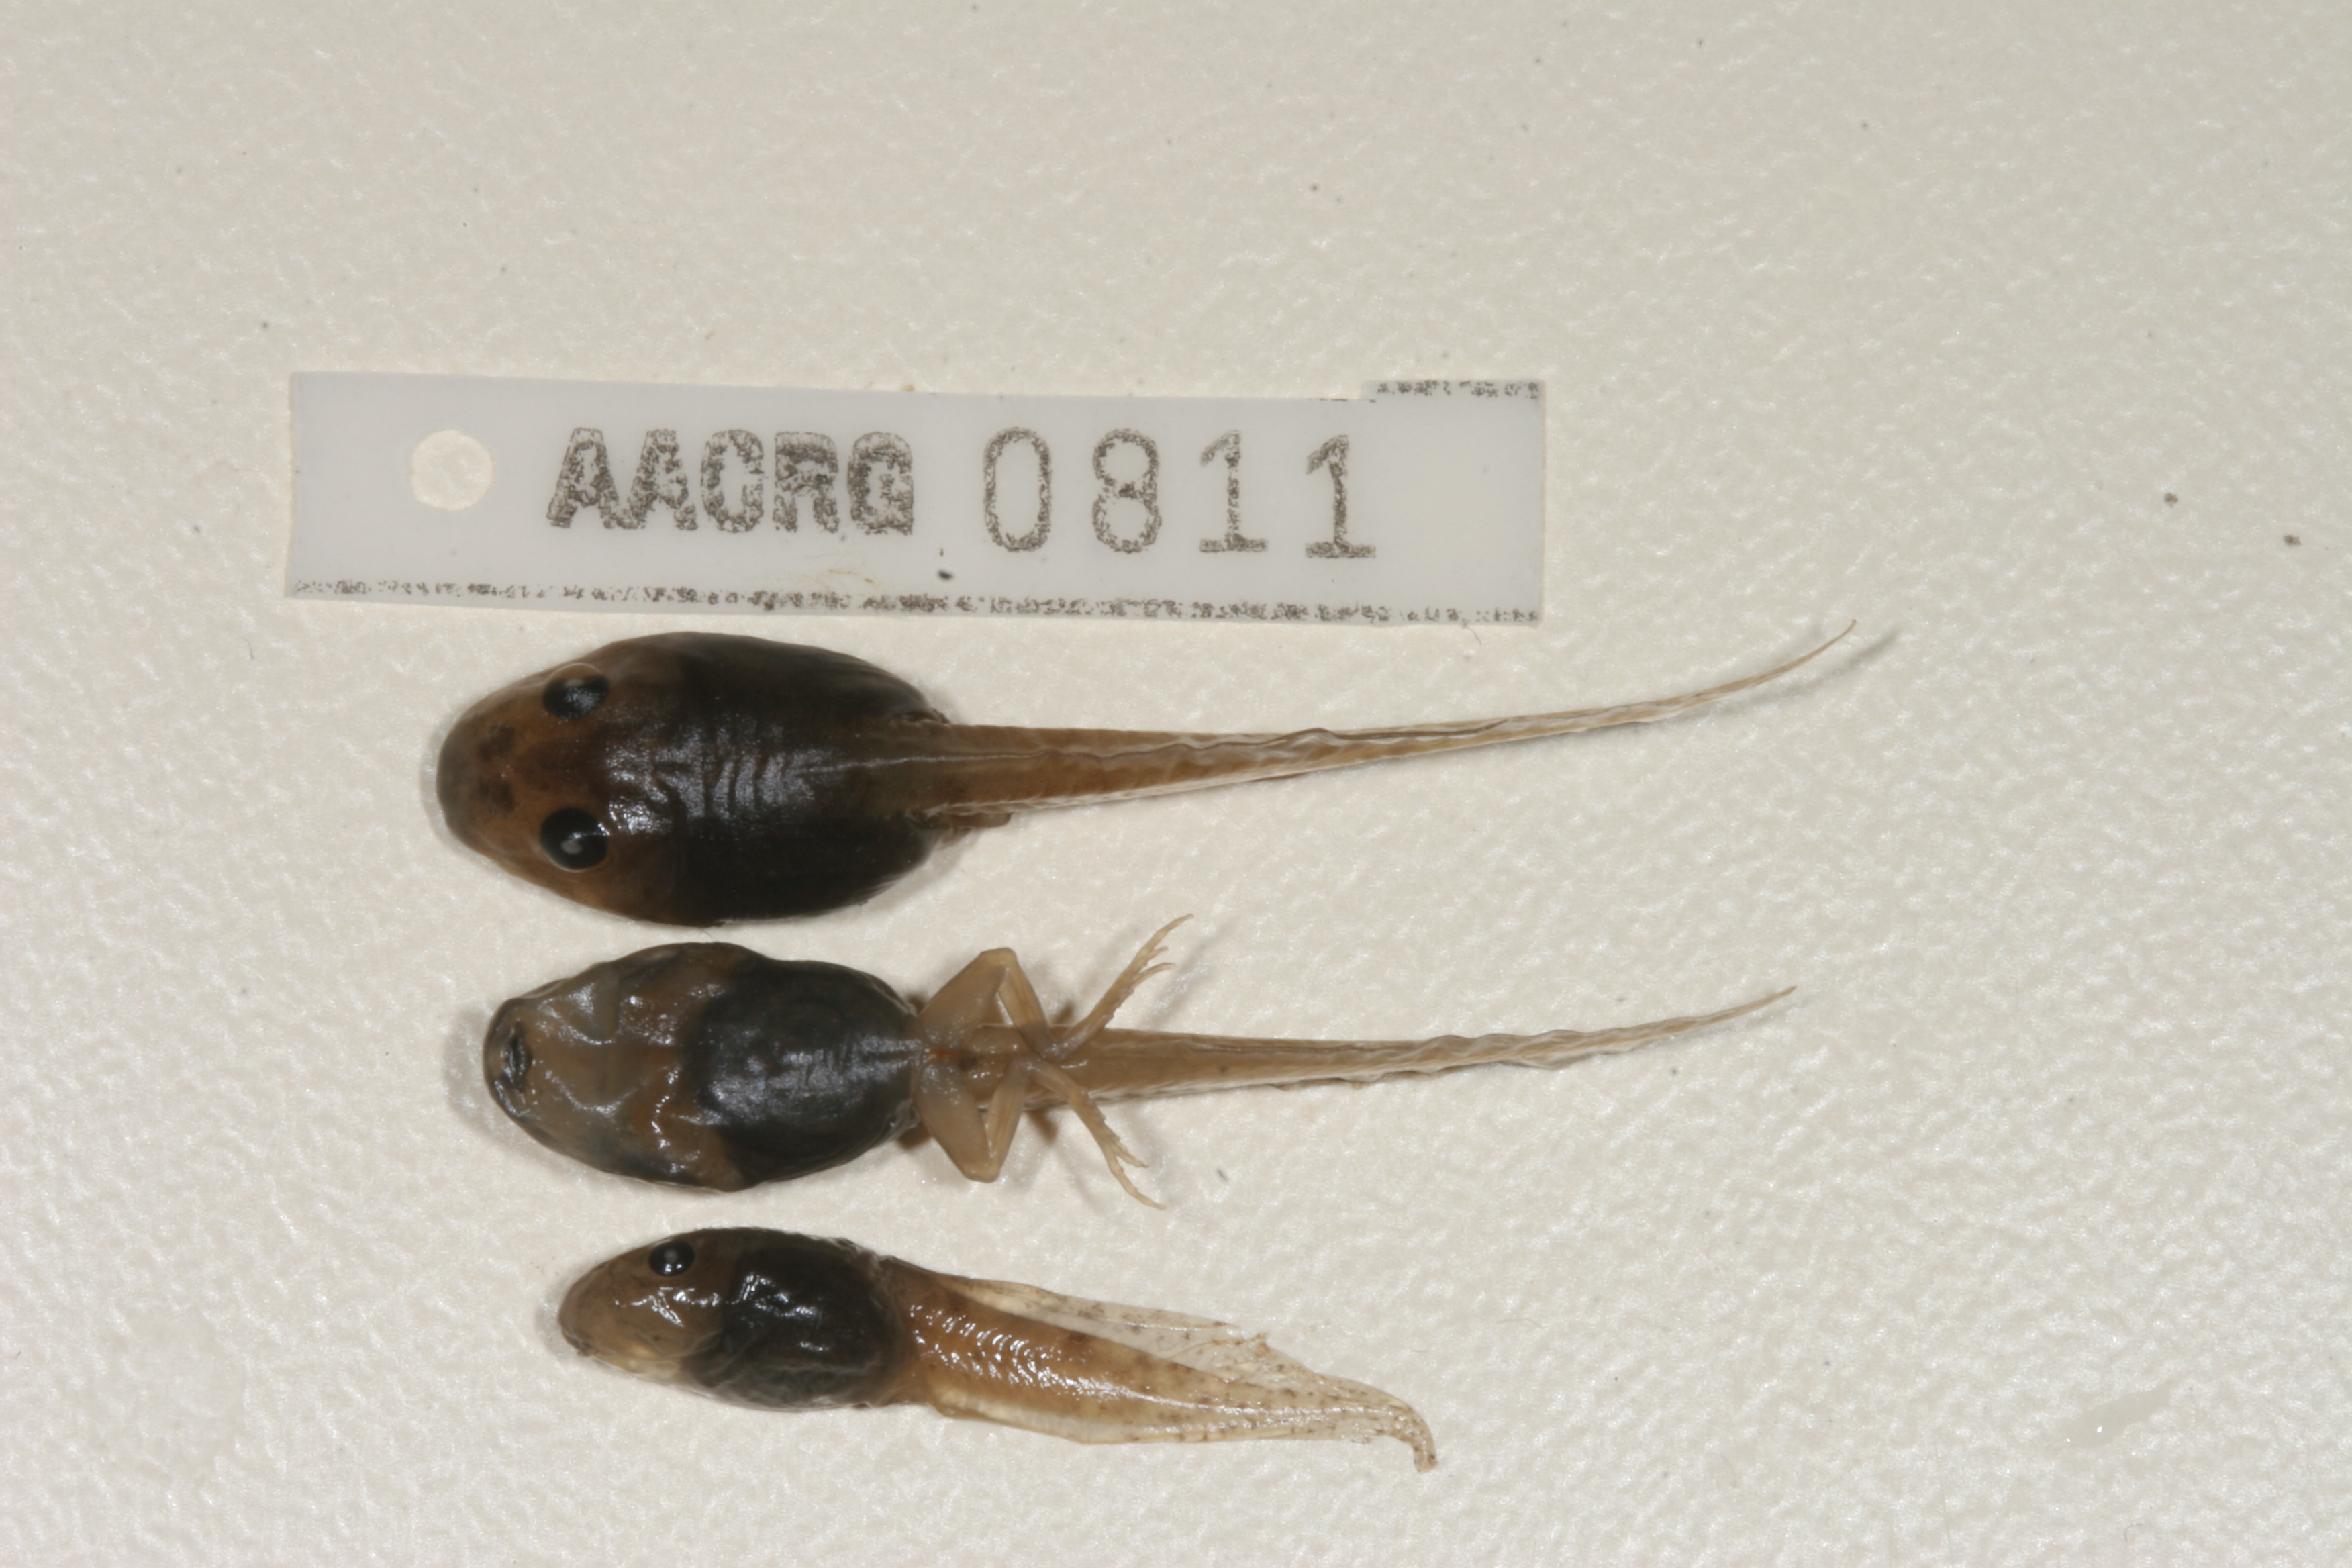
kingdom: Animalia
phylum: Chordata
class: Amphibia
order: Anura
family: Pyxicephalidae
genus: Strongylopus
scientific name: Strongylopus grayii
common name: Gray's stream frog
